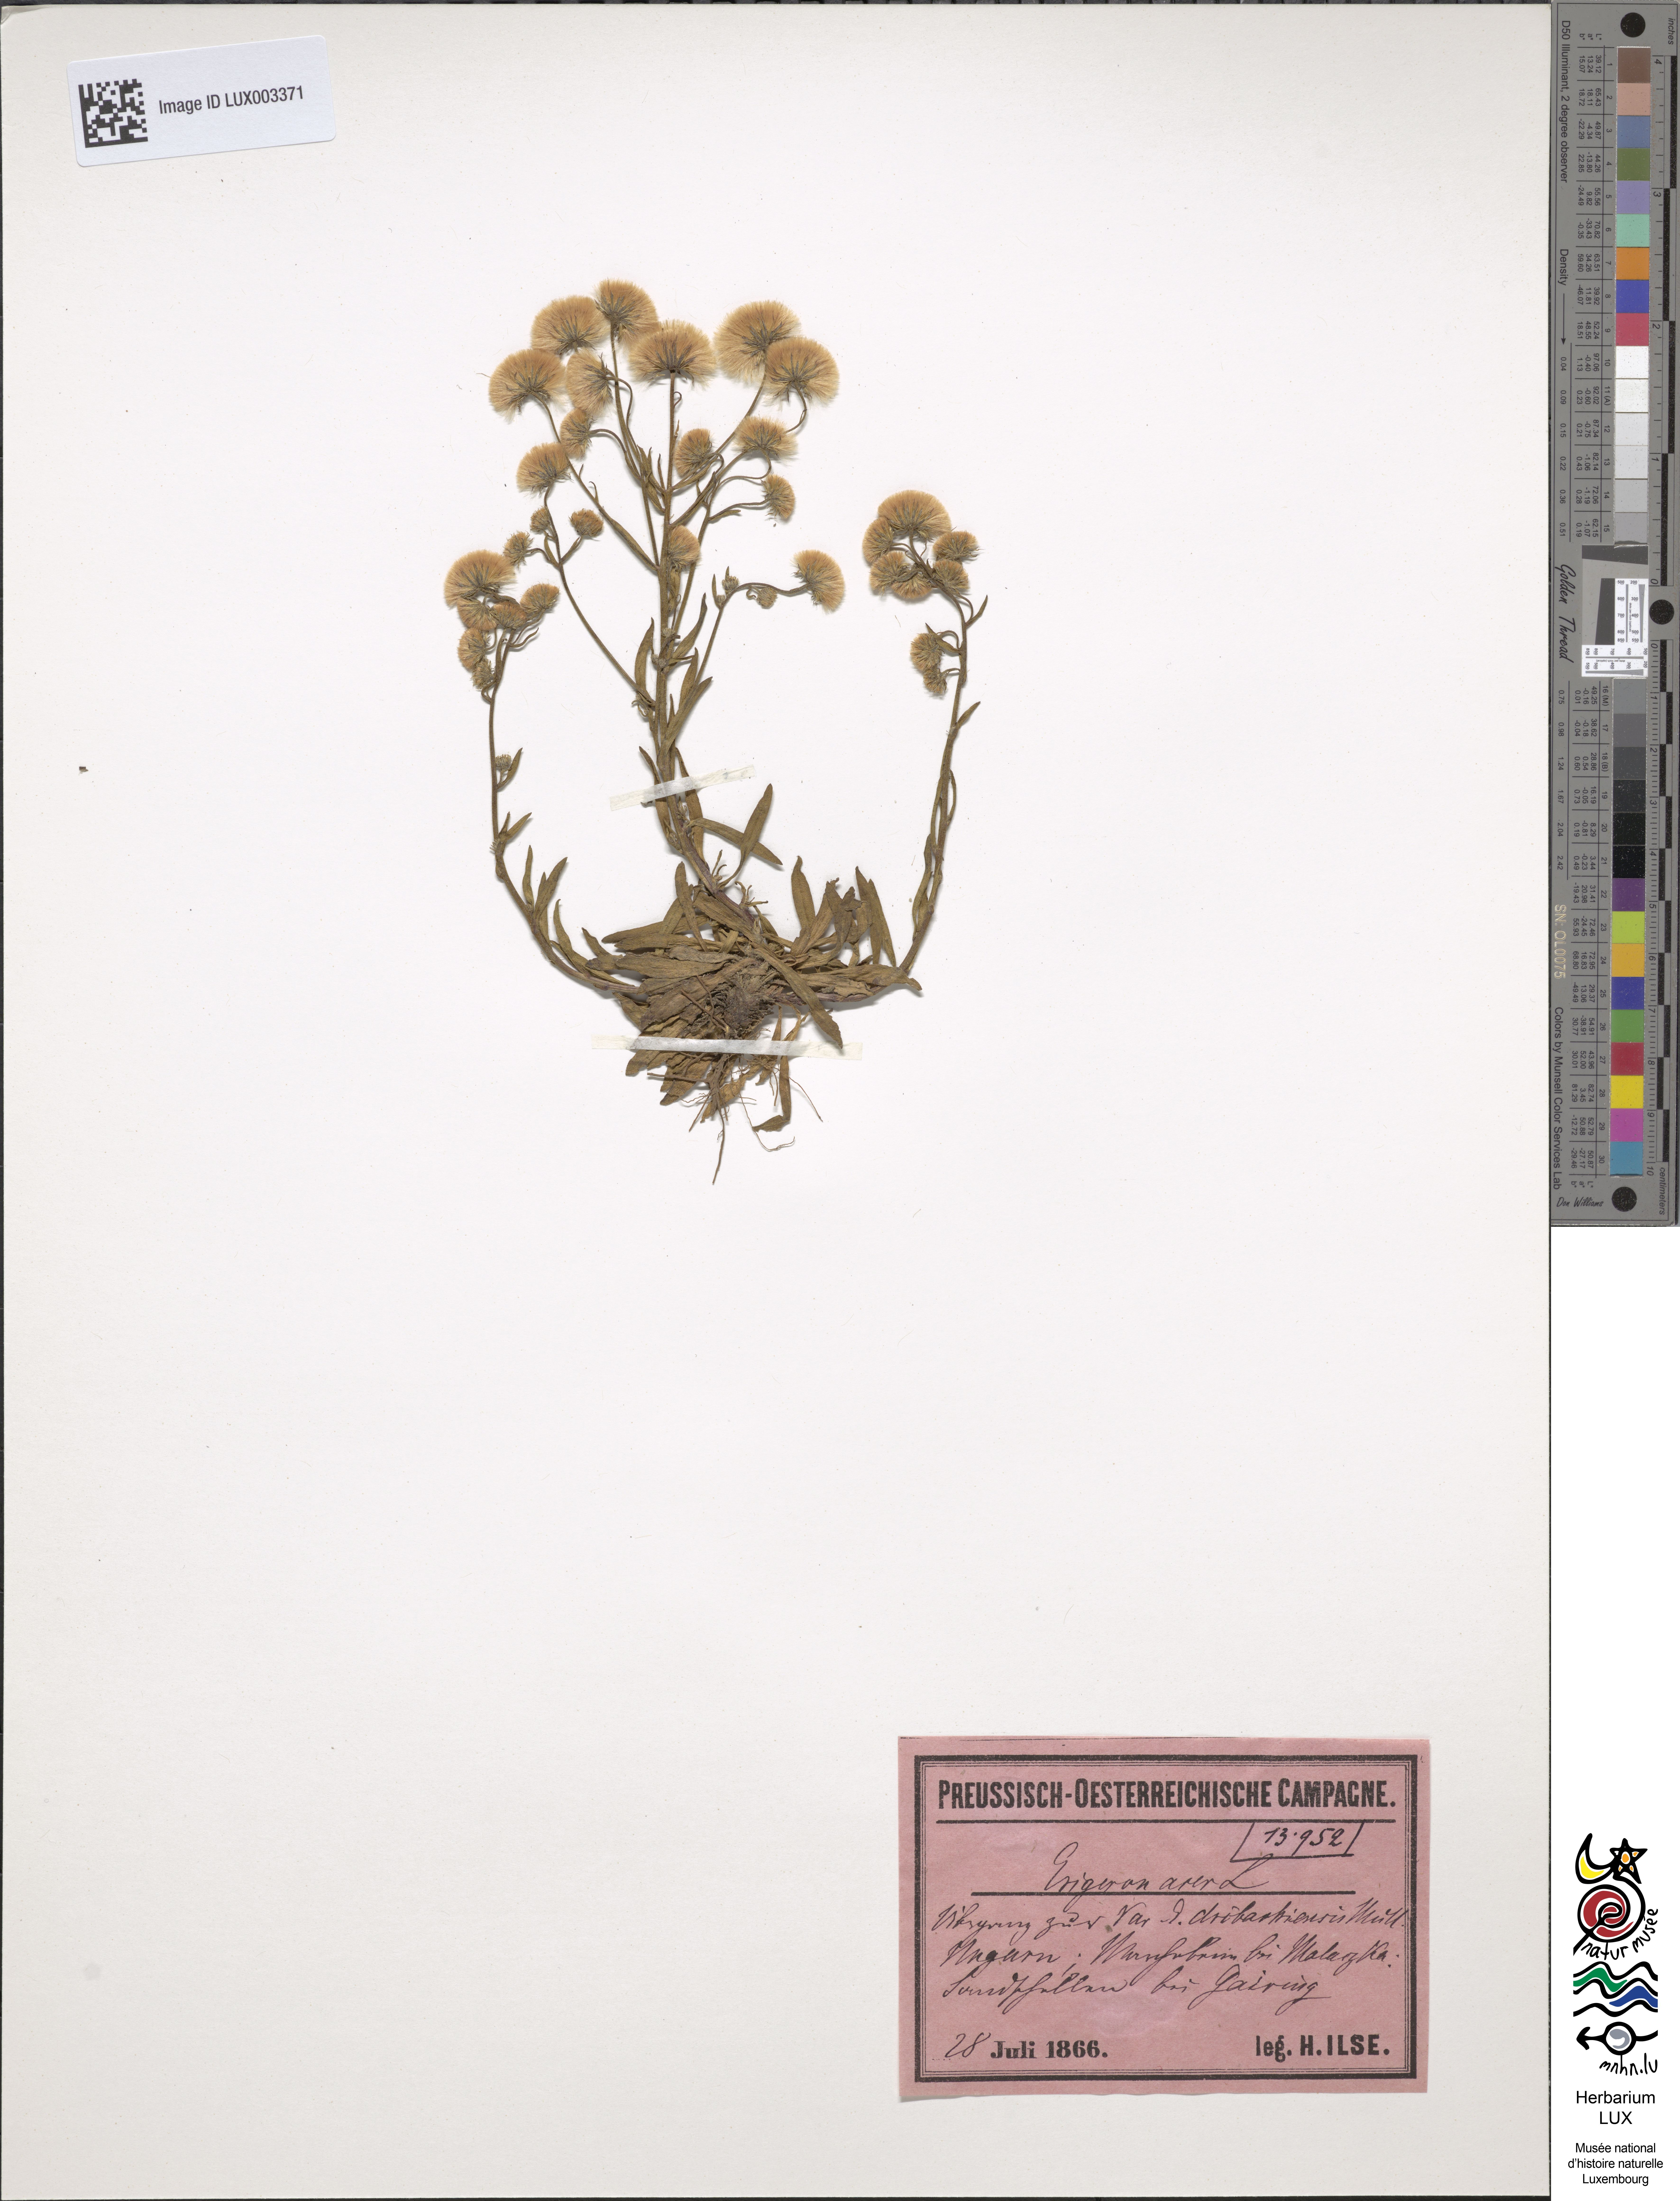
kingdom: Plantae
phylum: Tracheophyta
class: Magnoliopsida
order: Asterales
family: Asteraceae
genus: Erigeron
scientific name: Erigeron acer
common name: Blue fleabane
